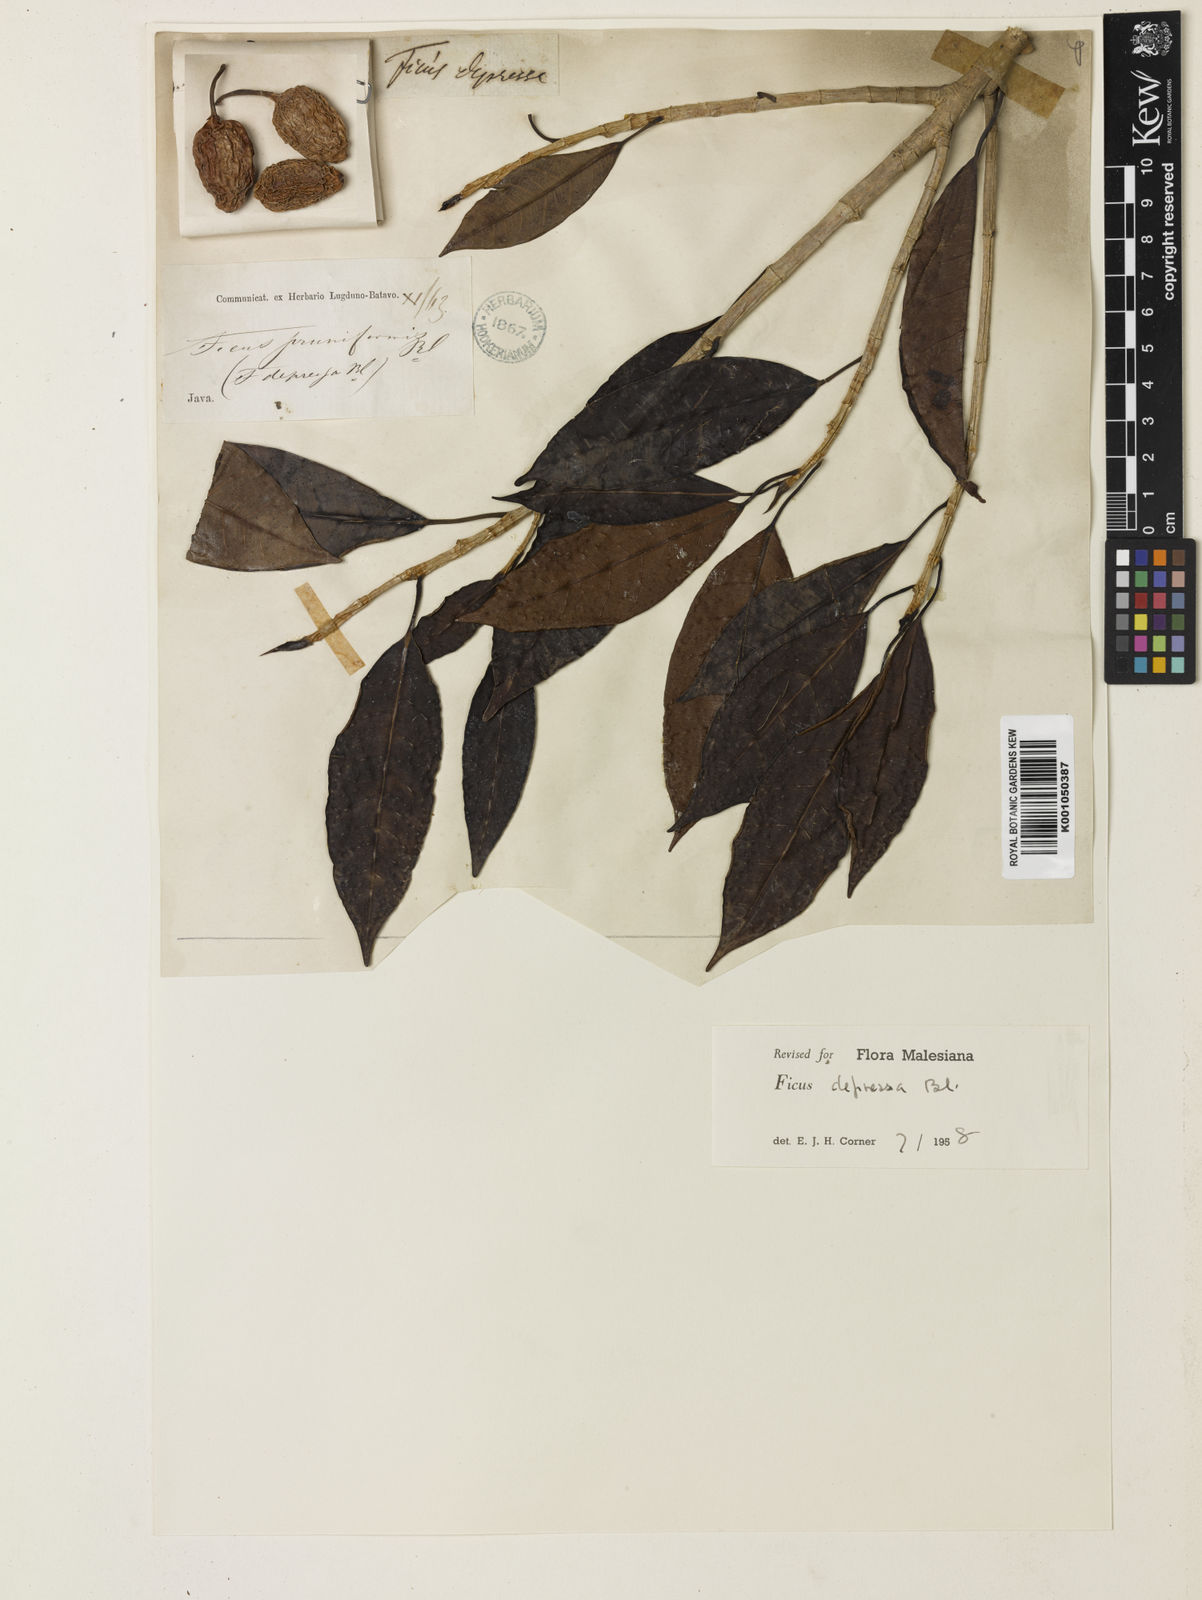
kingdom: Plantae
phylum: Tracheophyta
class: Magnoliopsida
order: Rosales
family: Moraceae
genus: Ficus
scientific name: Ficus depressa
